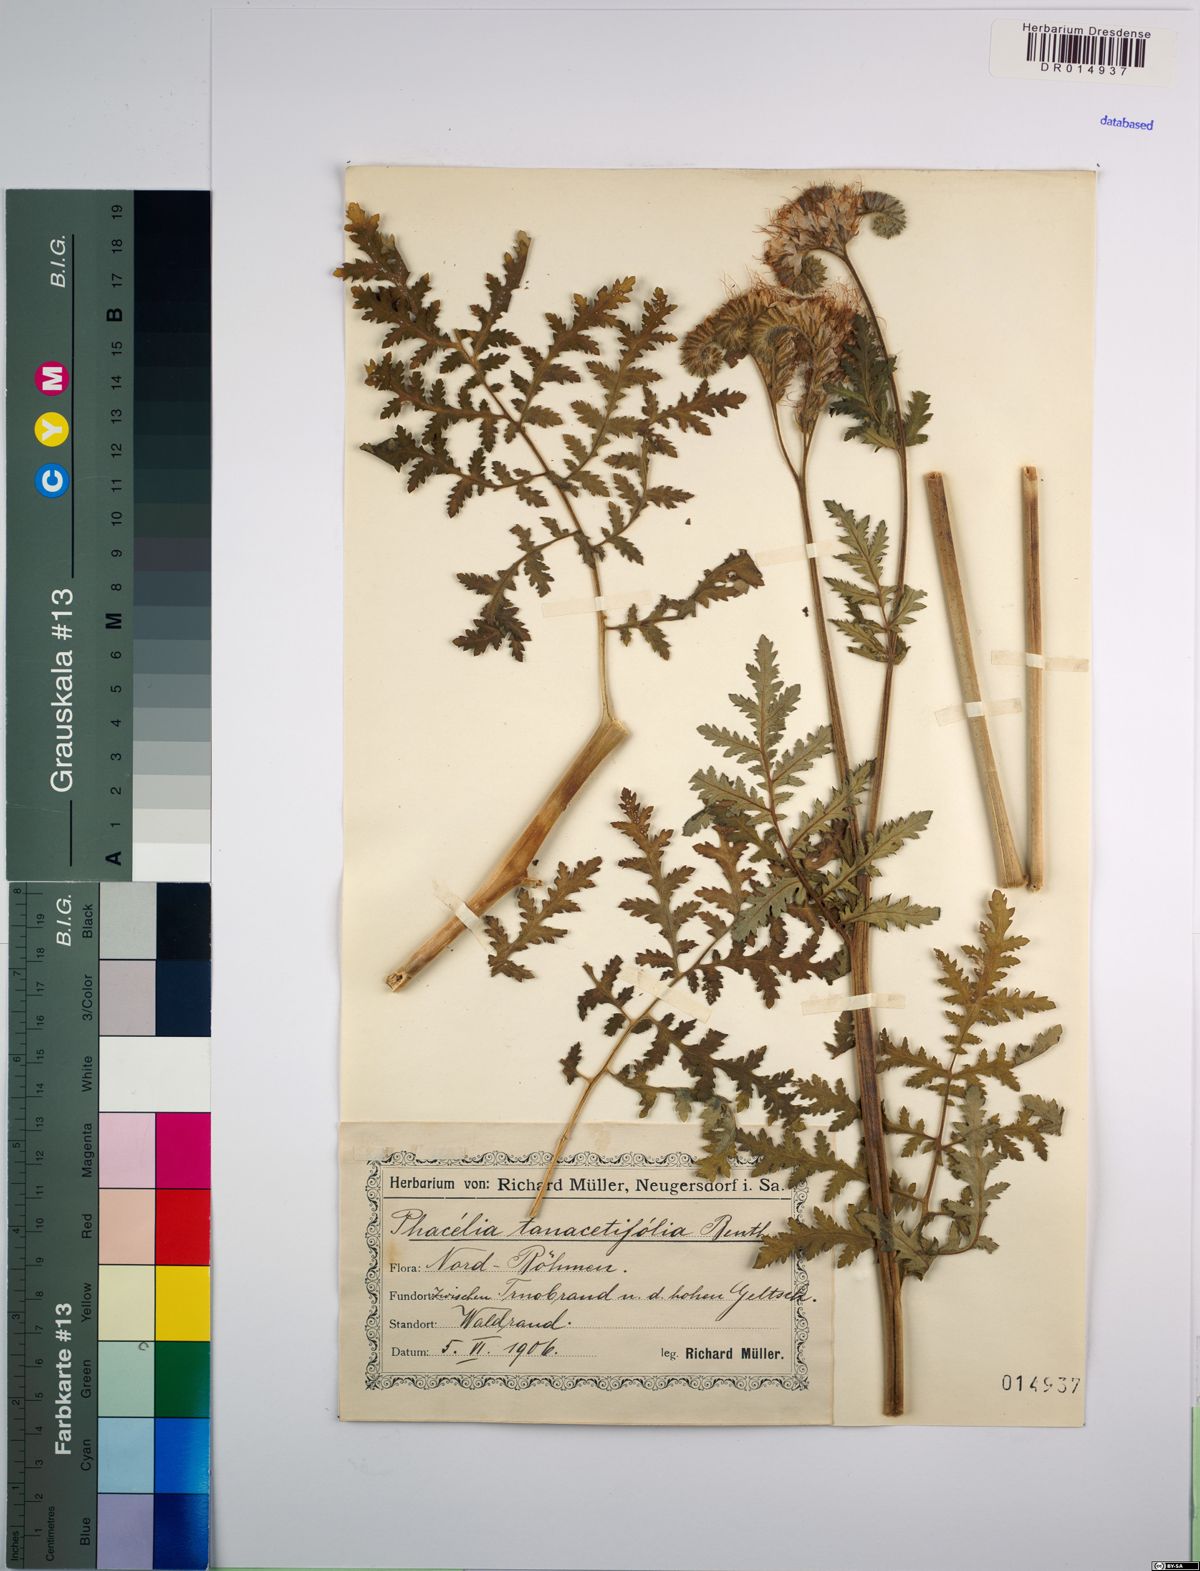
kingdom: Plantae
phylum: Tracheophyta
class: Magnoliopsida
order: Boraginales
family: Hydrophyllaceae
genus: Phacelia
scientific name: Phacelia tanacetifolia
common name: Phacelia
